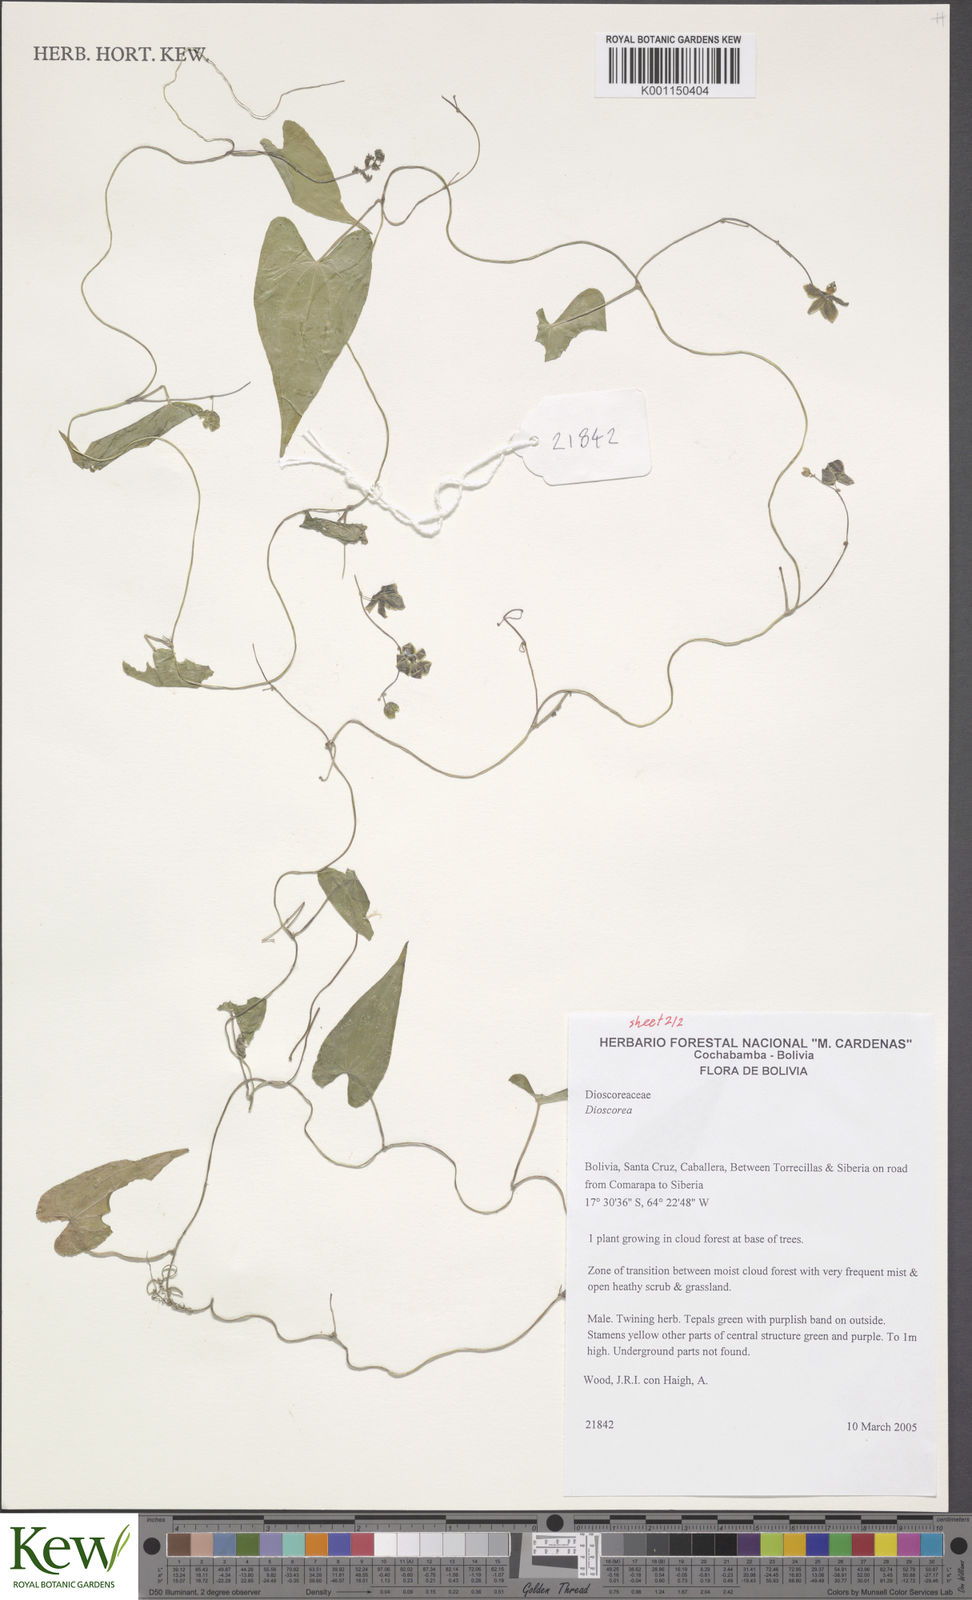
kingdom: Plantae
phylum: Tracheophyta
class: Liliopsida
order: Dioscoreales
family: Dioscoreaceae
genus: Dioscorea
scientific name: Dioscorea subhastata
